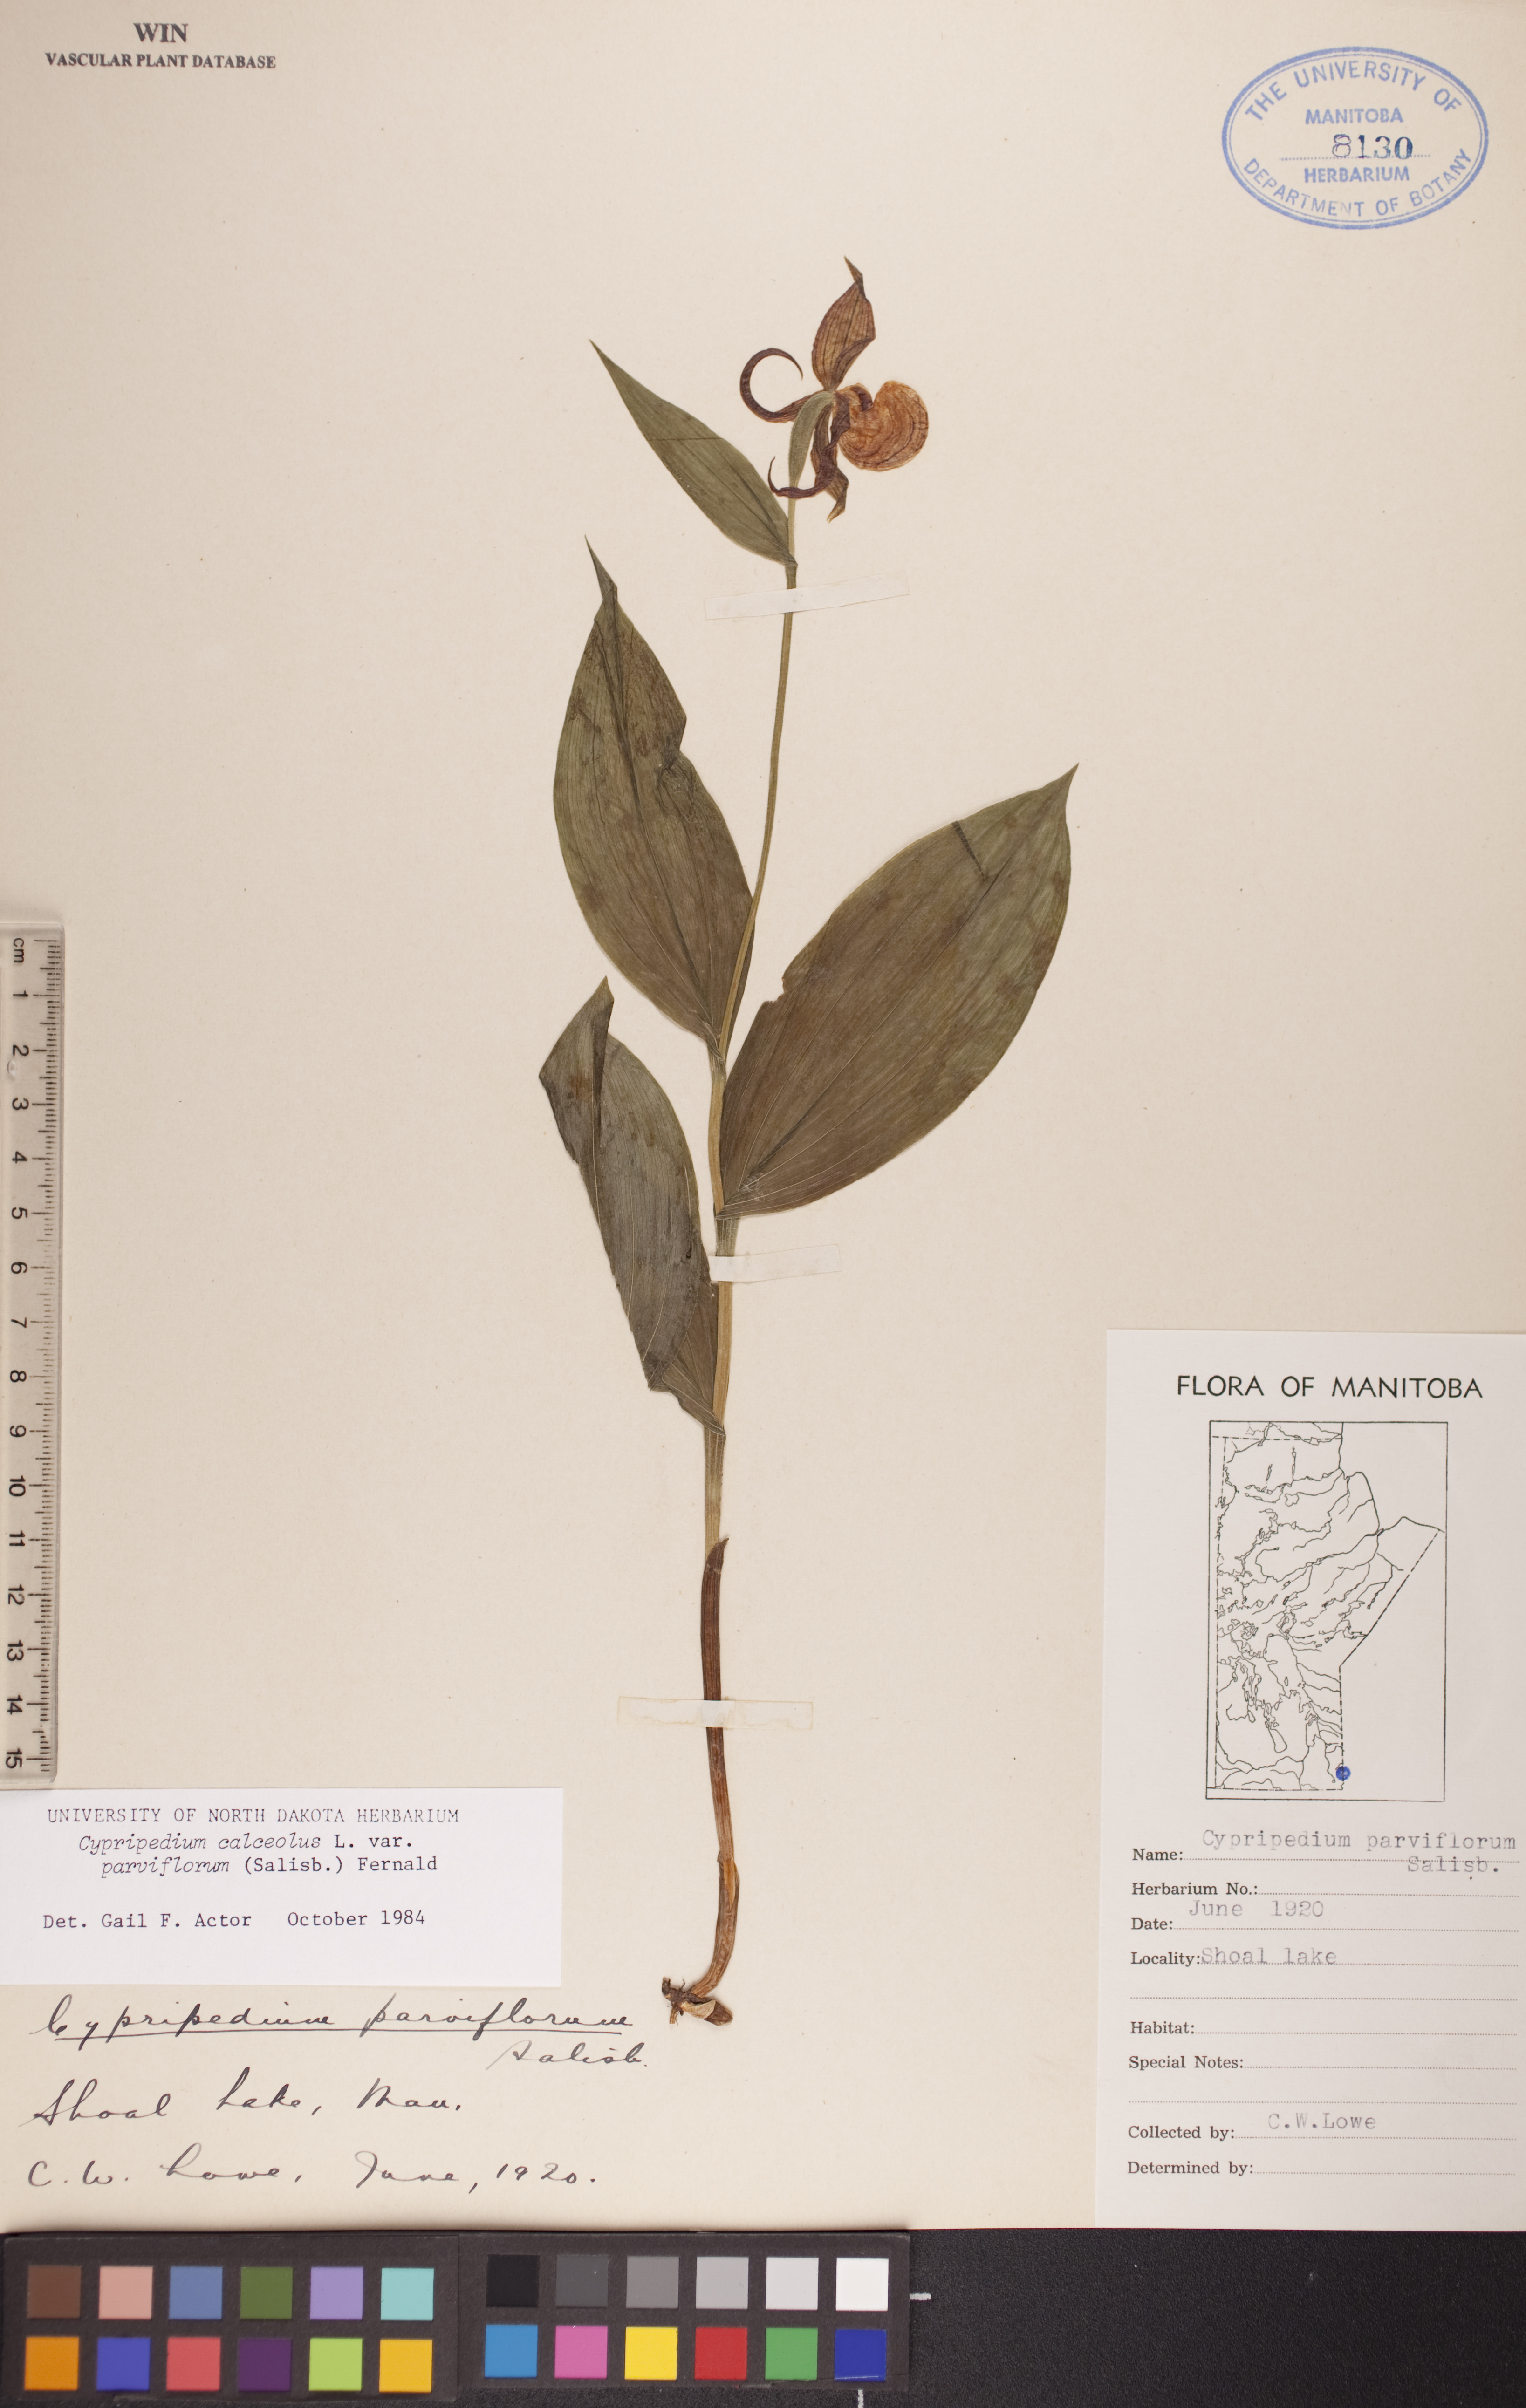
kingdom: Plantae
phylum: Tracheophyta
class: Liliopsida
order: Asparagales
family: Orchidaceae
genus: Cypripedium
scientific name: Cypripedium parviflorum
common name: American yellow lady's-slipper
